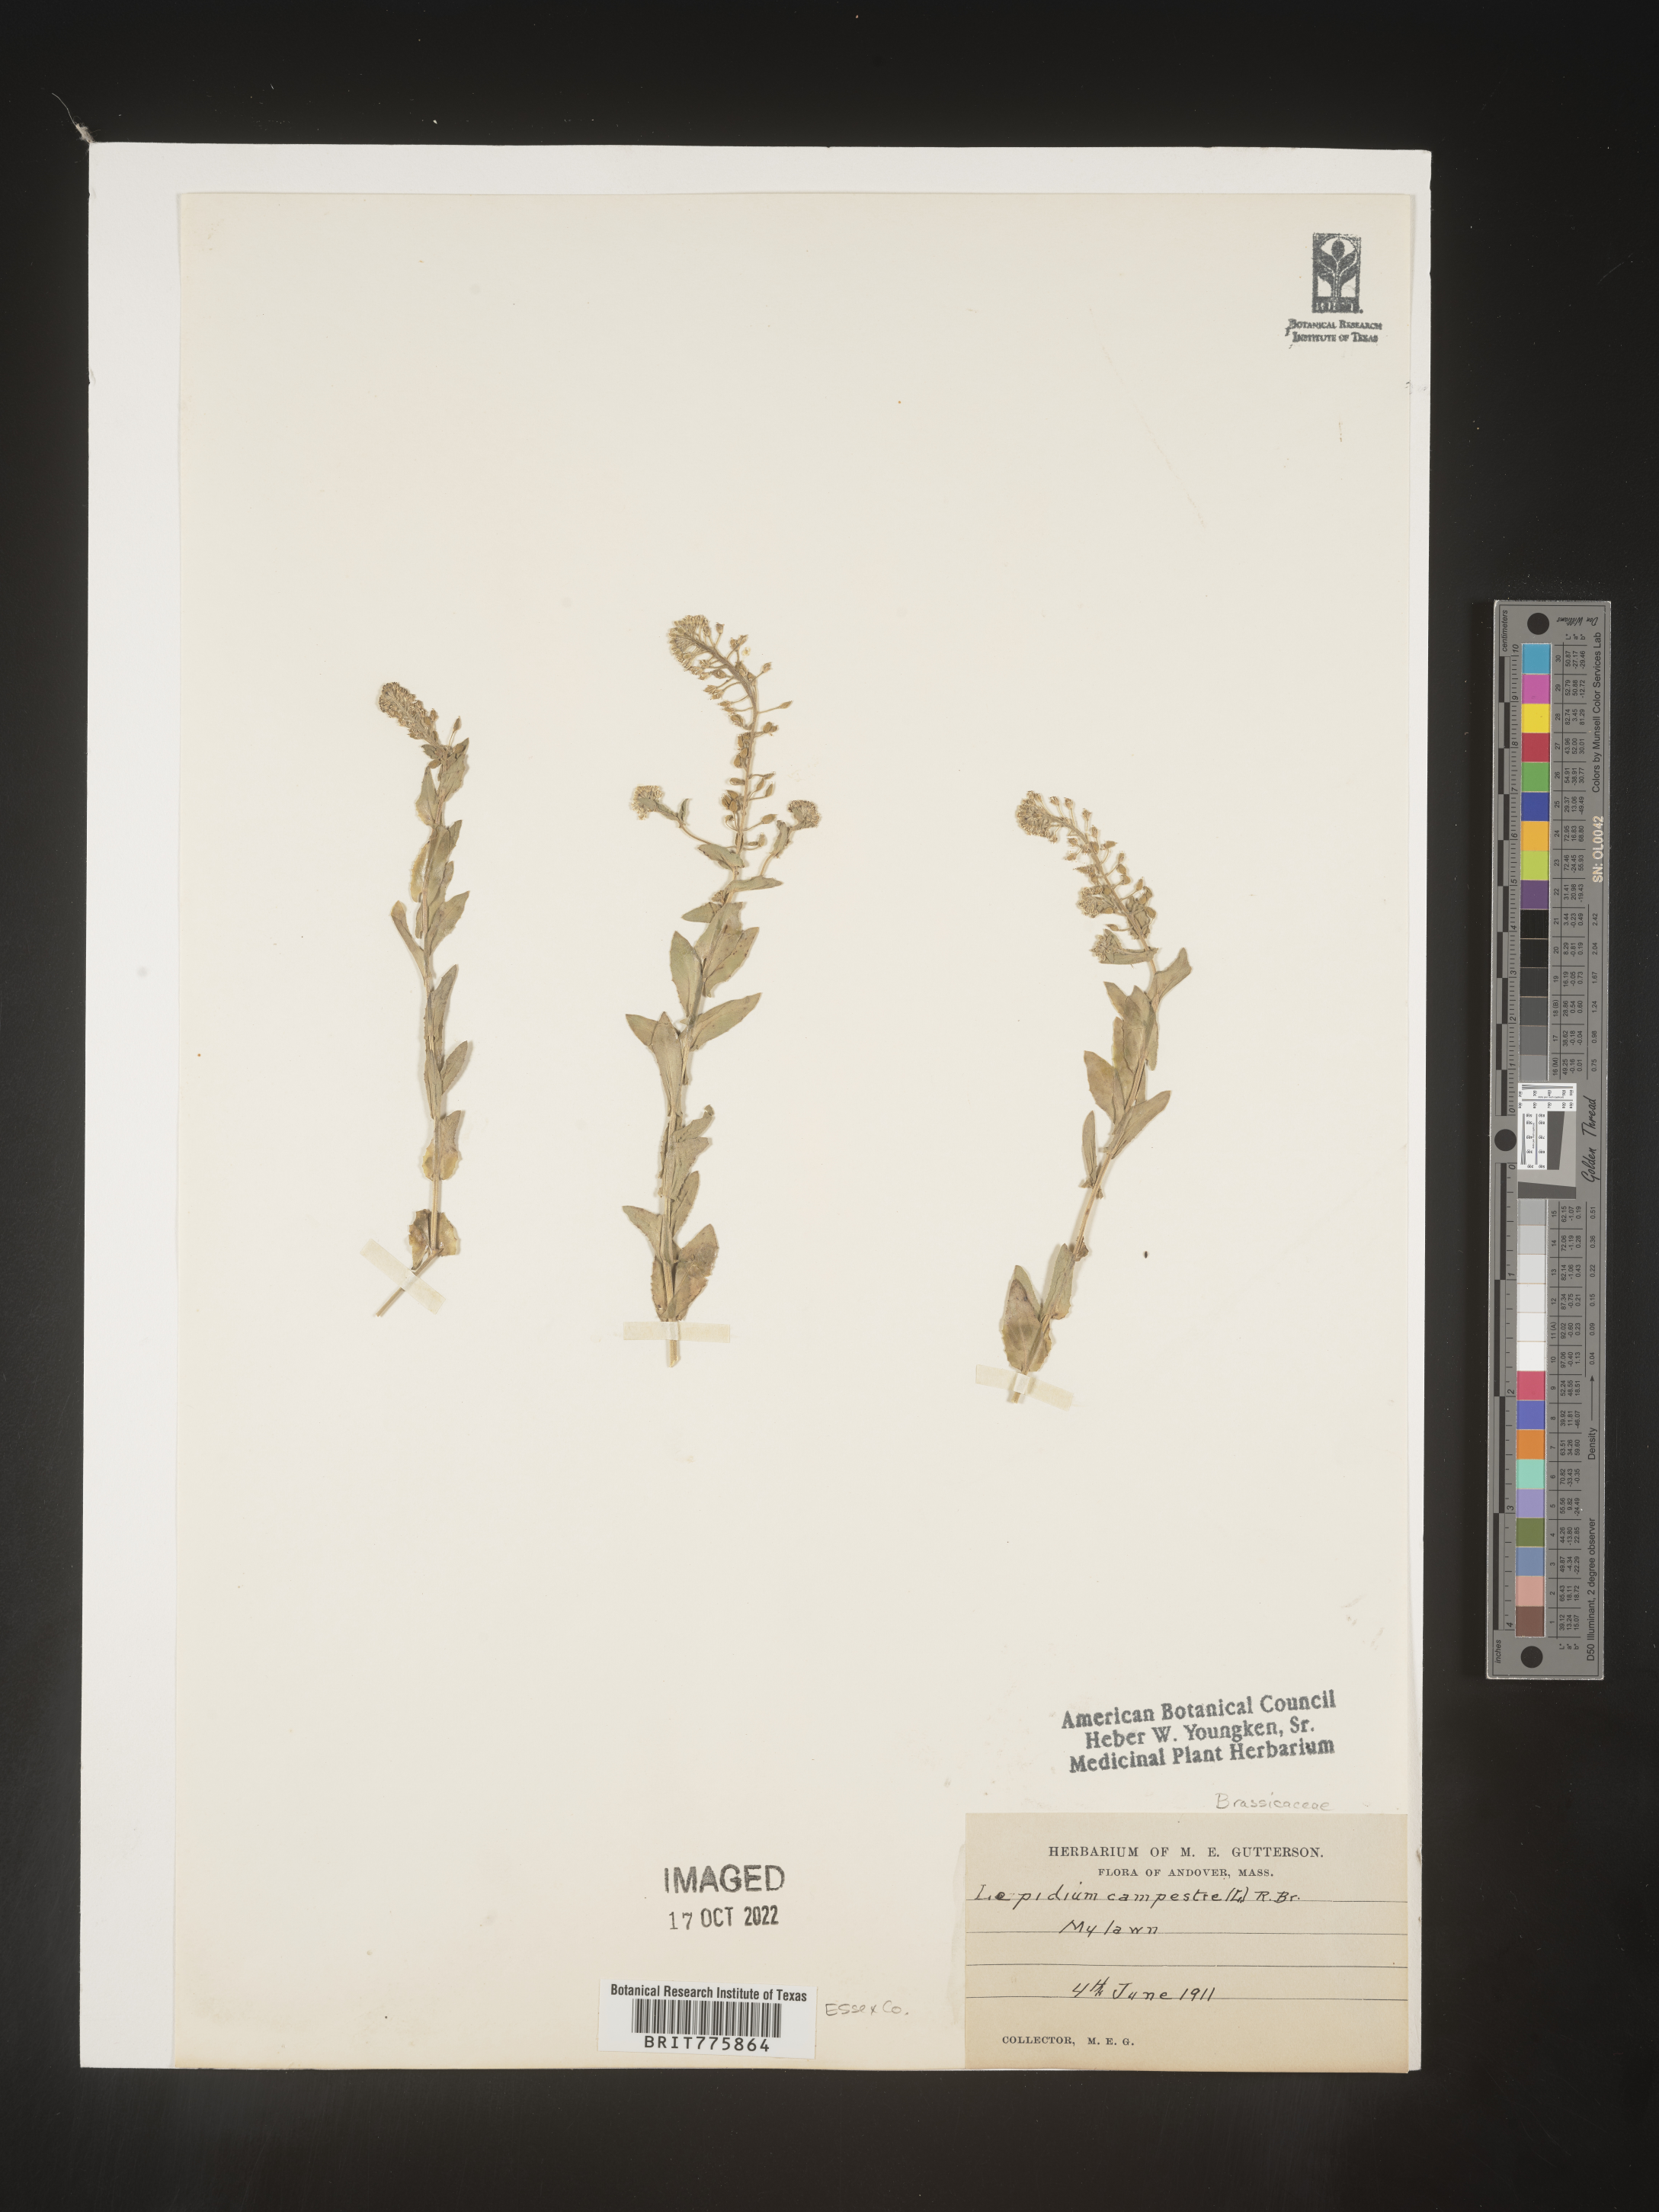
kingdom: Plantae
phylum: Tracheophyta
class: Magnoliopsida
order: Brassicales
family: Brassicaceae
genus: Lepidium
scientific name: Lepidium campestre
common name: Field pepperwort
